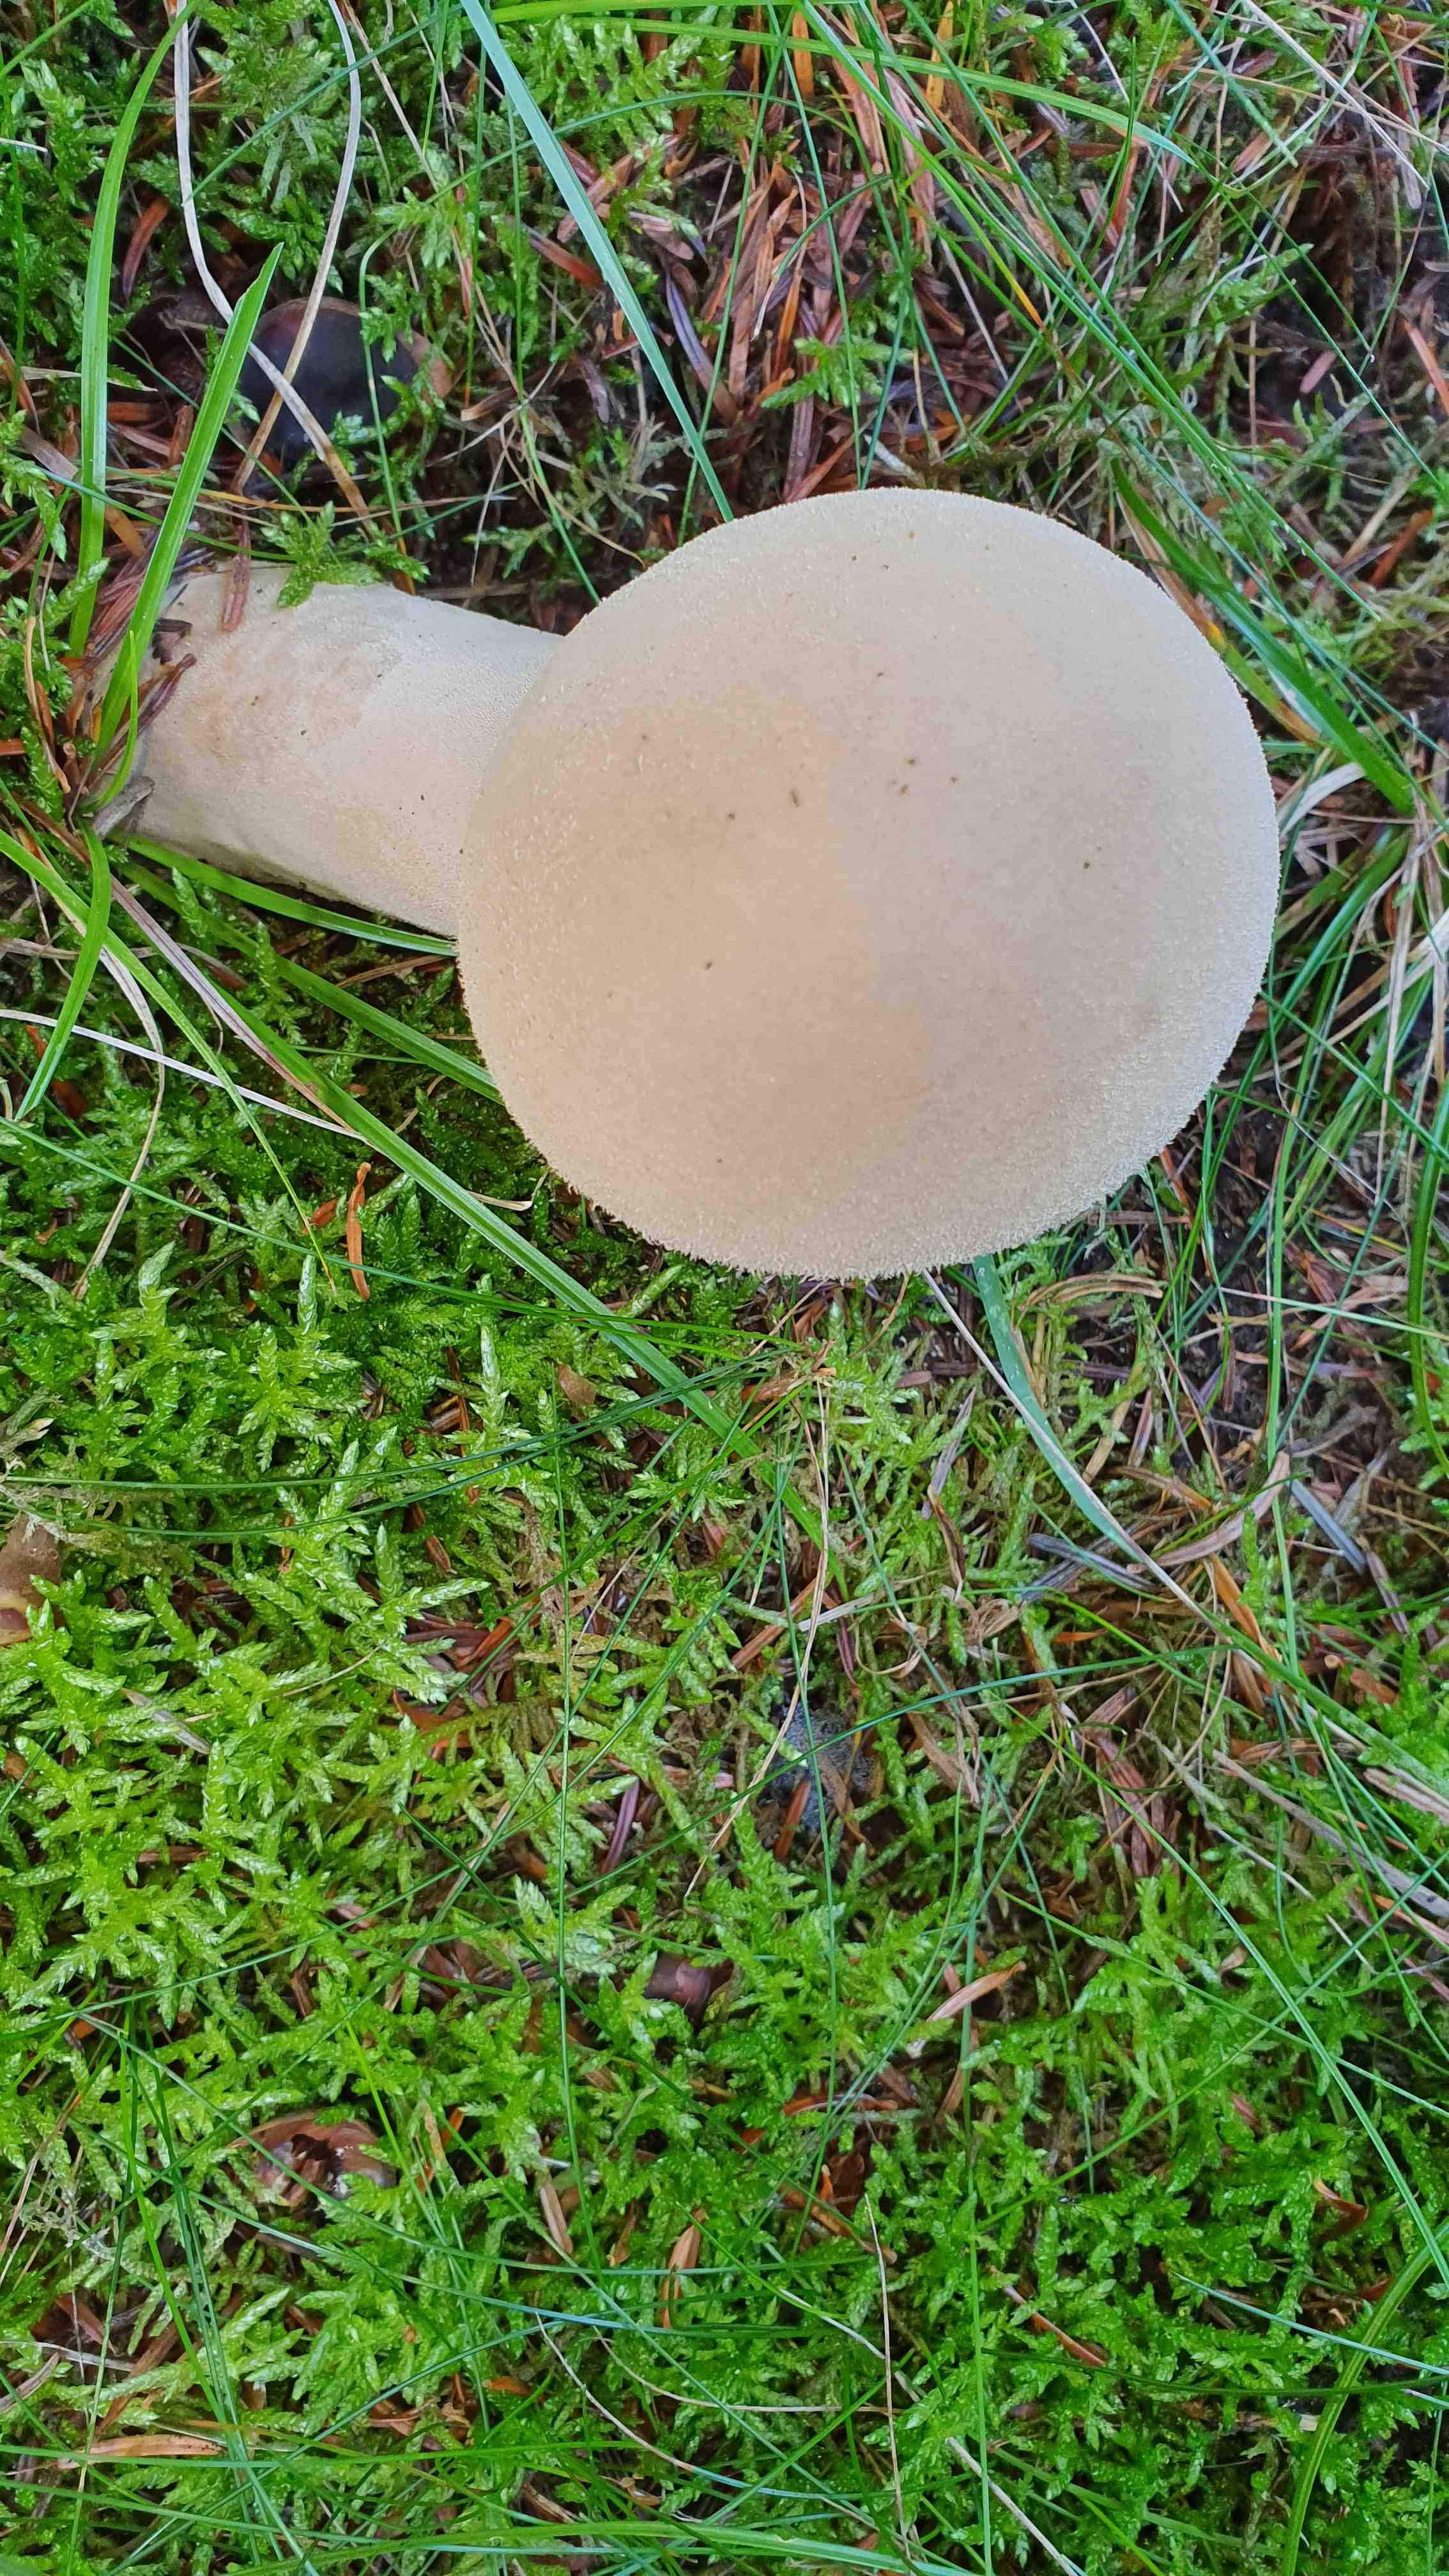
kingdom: Fungi
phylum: Basidiomycota
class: Agaricomycetes
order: Agaricales
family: Lycoperdaceae
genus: Lycoperdon
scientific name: Lycoperdon excipuliforme
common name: højstokket støvbold
